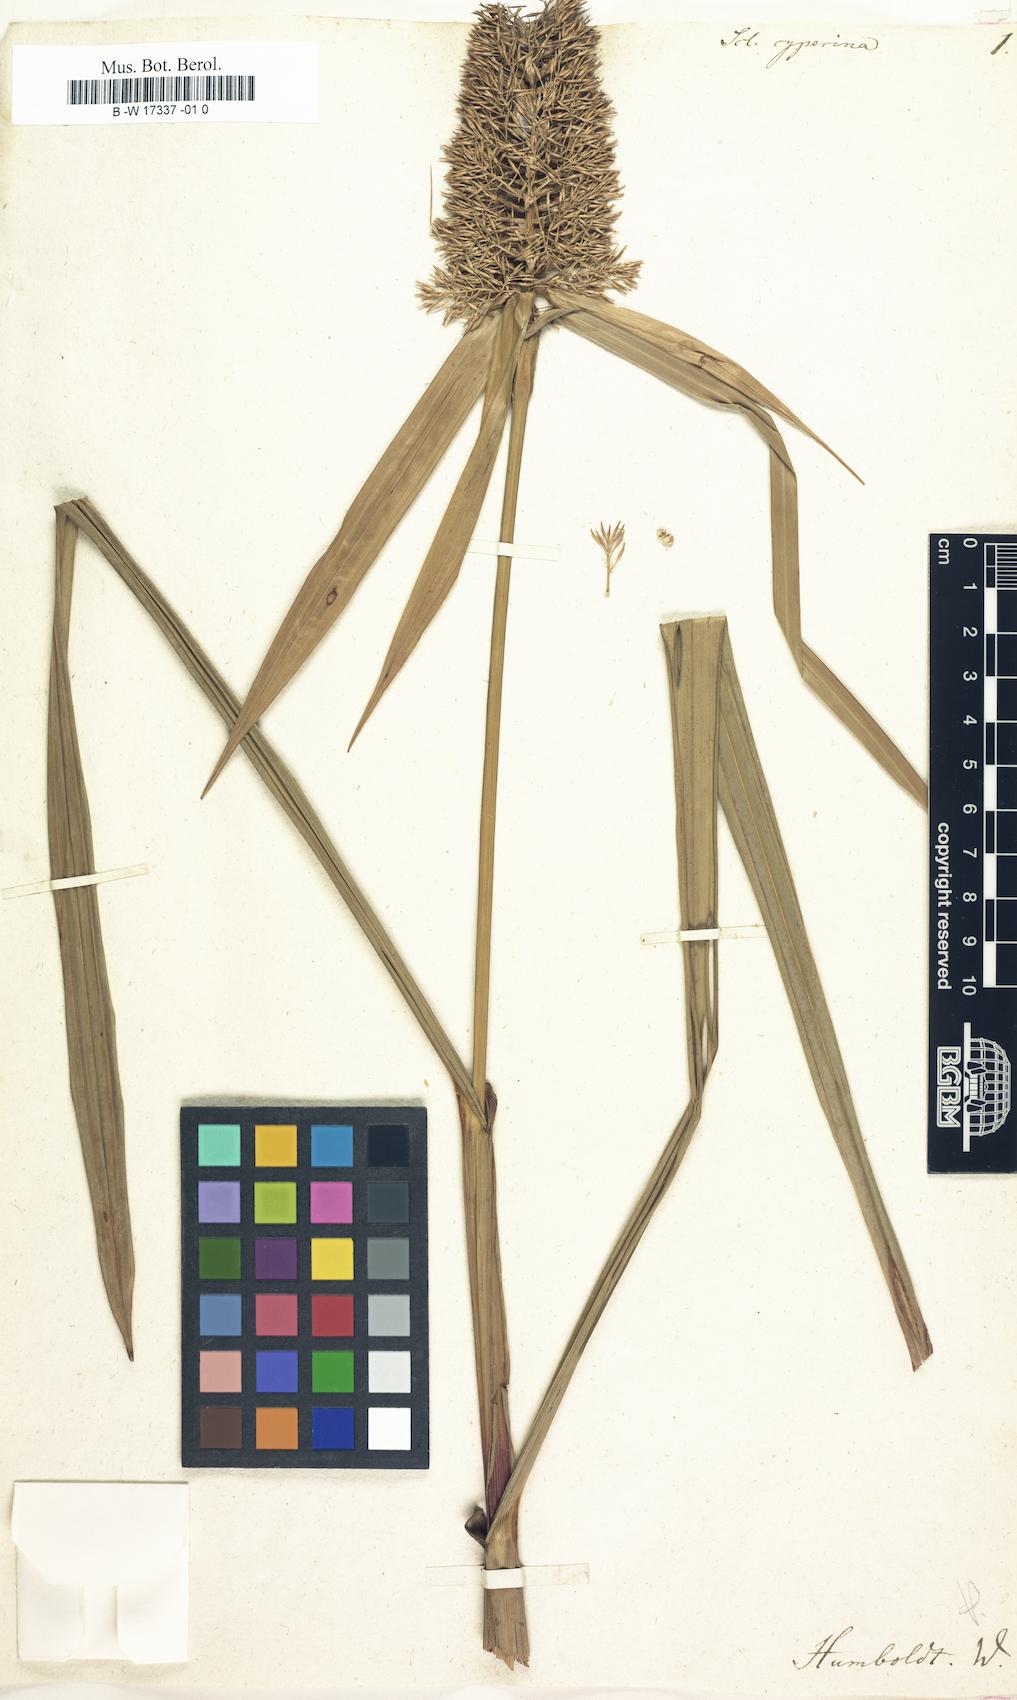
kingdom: Plantae
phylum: Tracheophyta
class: Liliopsida
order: Poales
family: Cyperaceae
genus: Scleria
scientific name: Scleria cyperina
